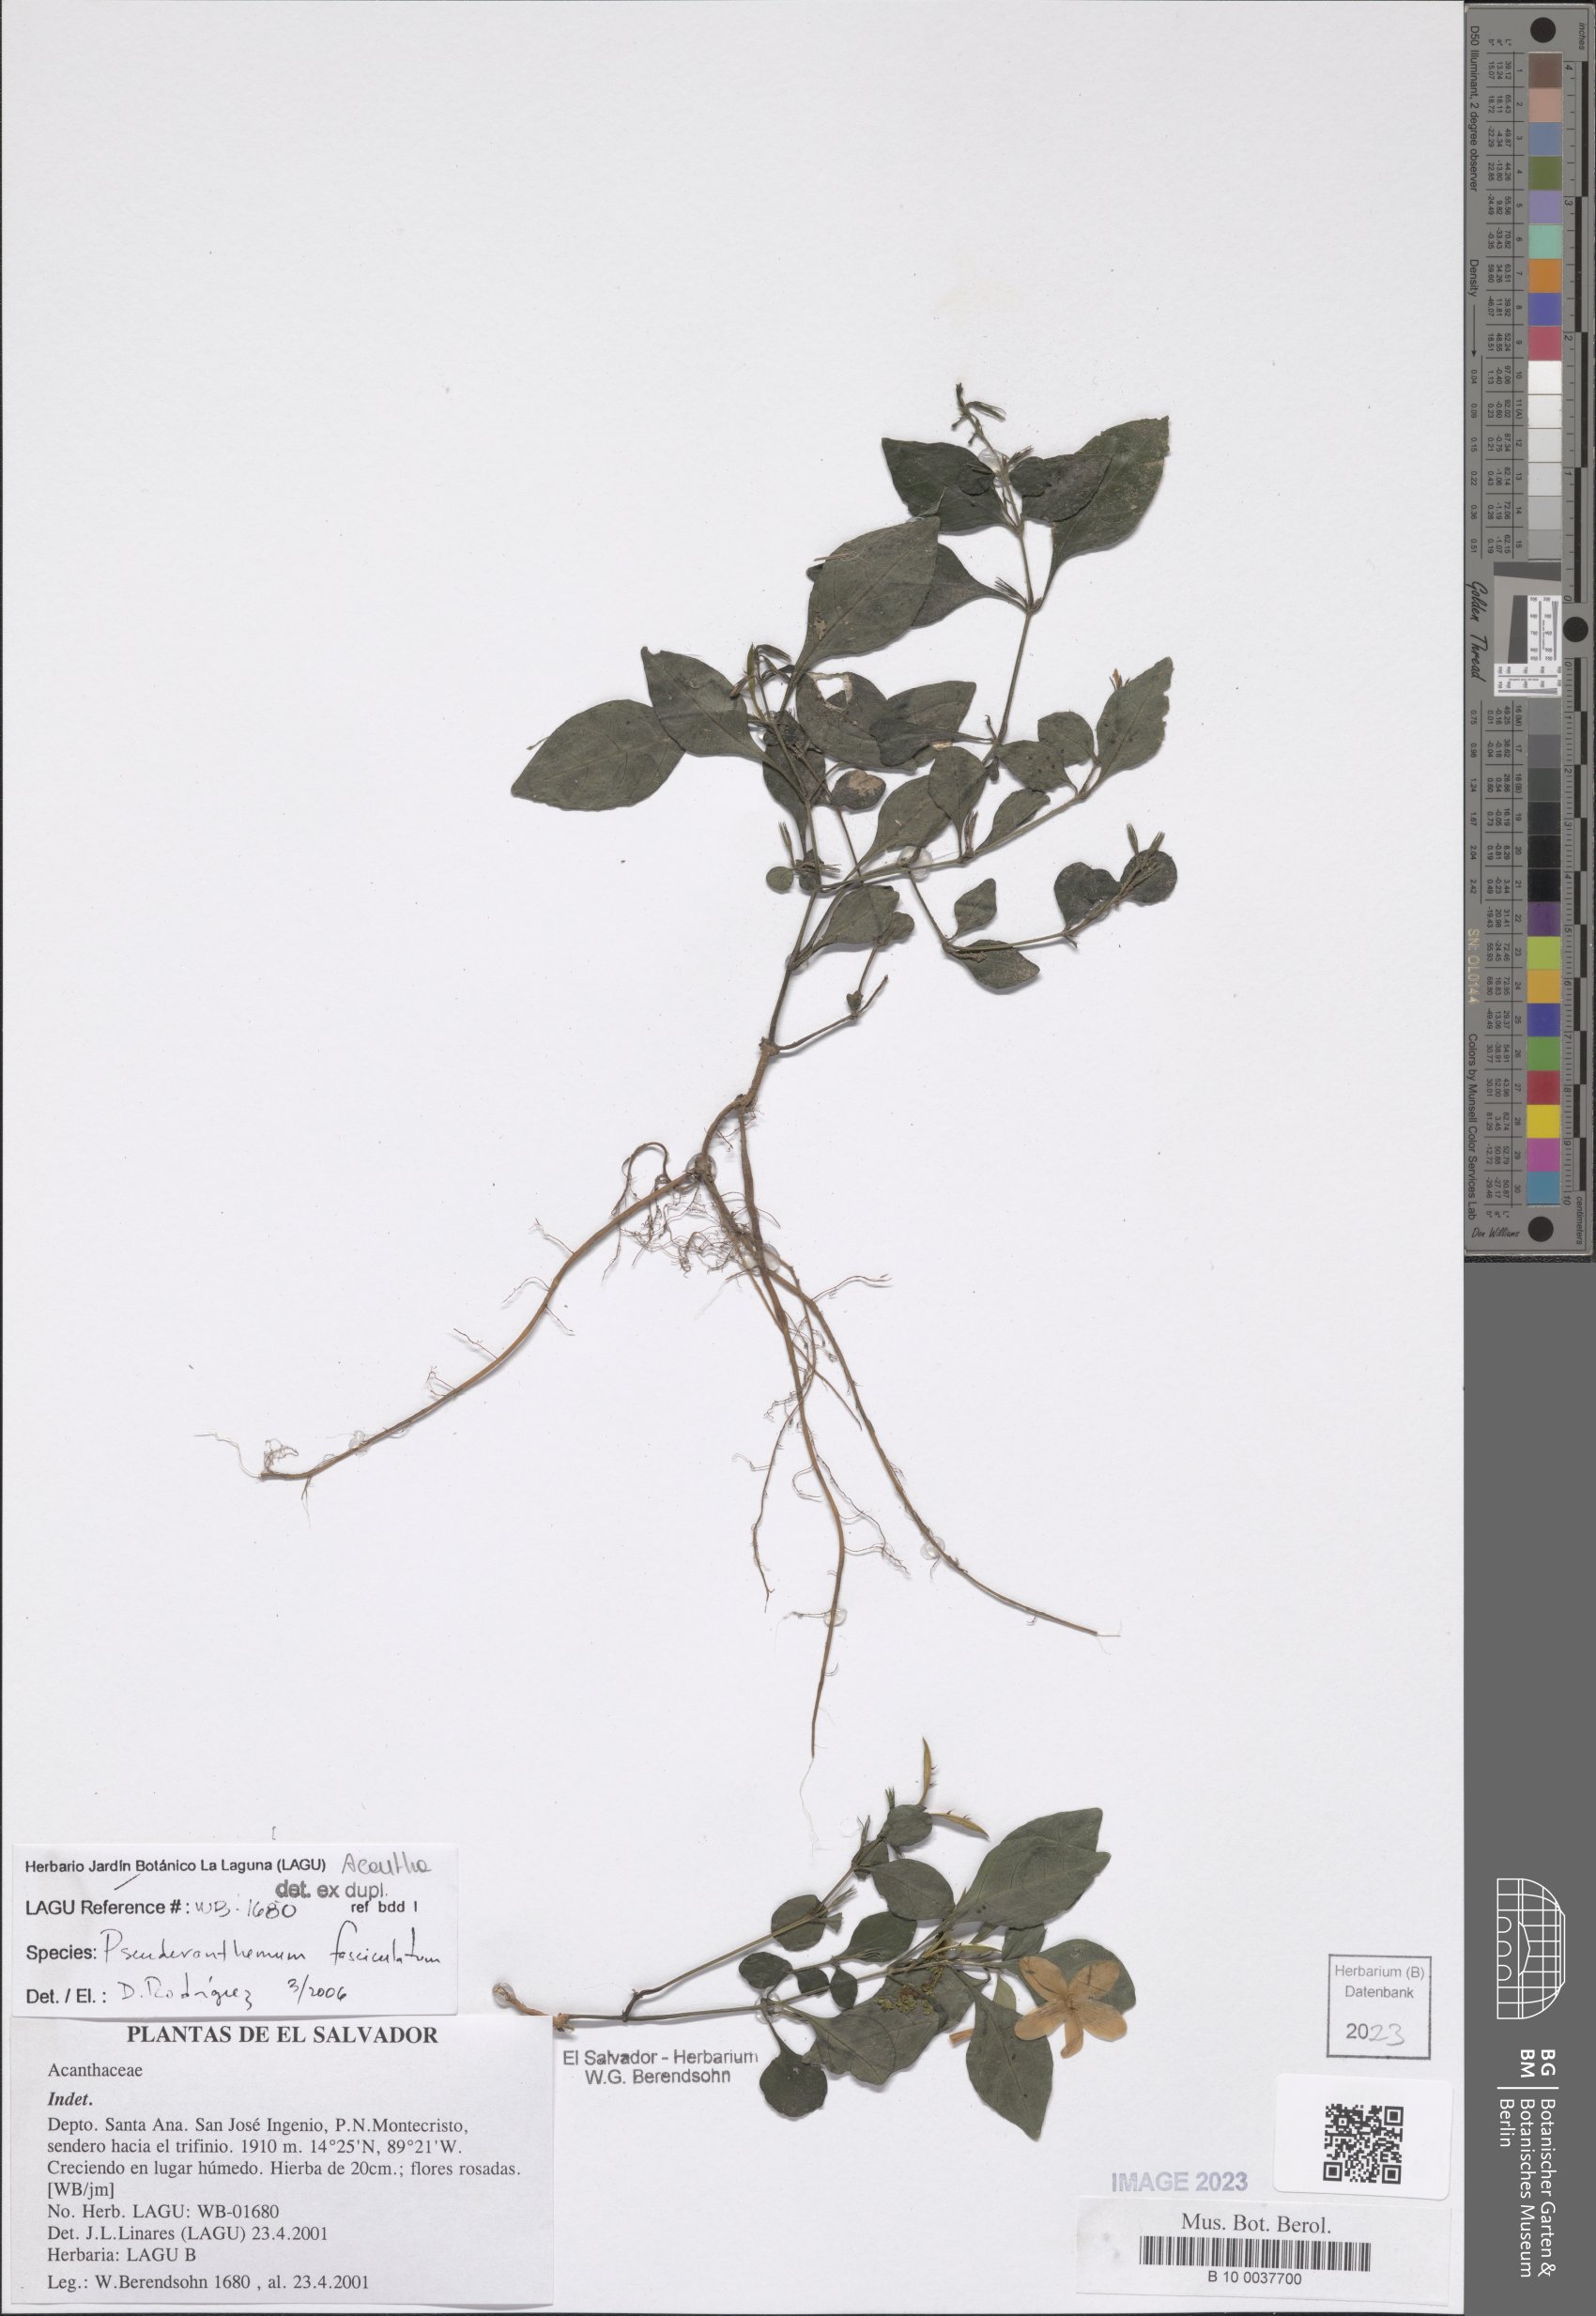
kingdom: Plantae
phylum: Tracheophyta
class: Magnoliopsida
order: Lamiales
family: Acanthaceae
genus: Pseuderanthemum
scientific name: Pseuderanthemum fasciculatum
